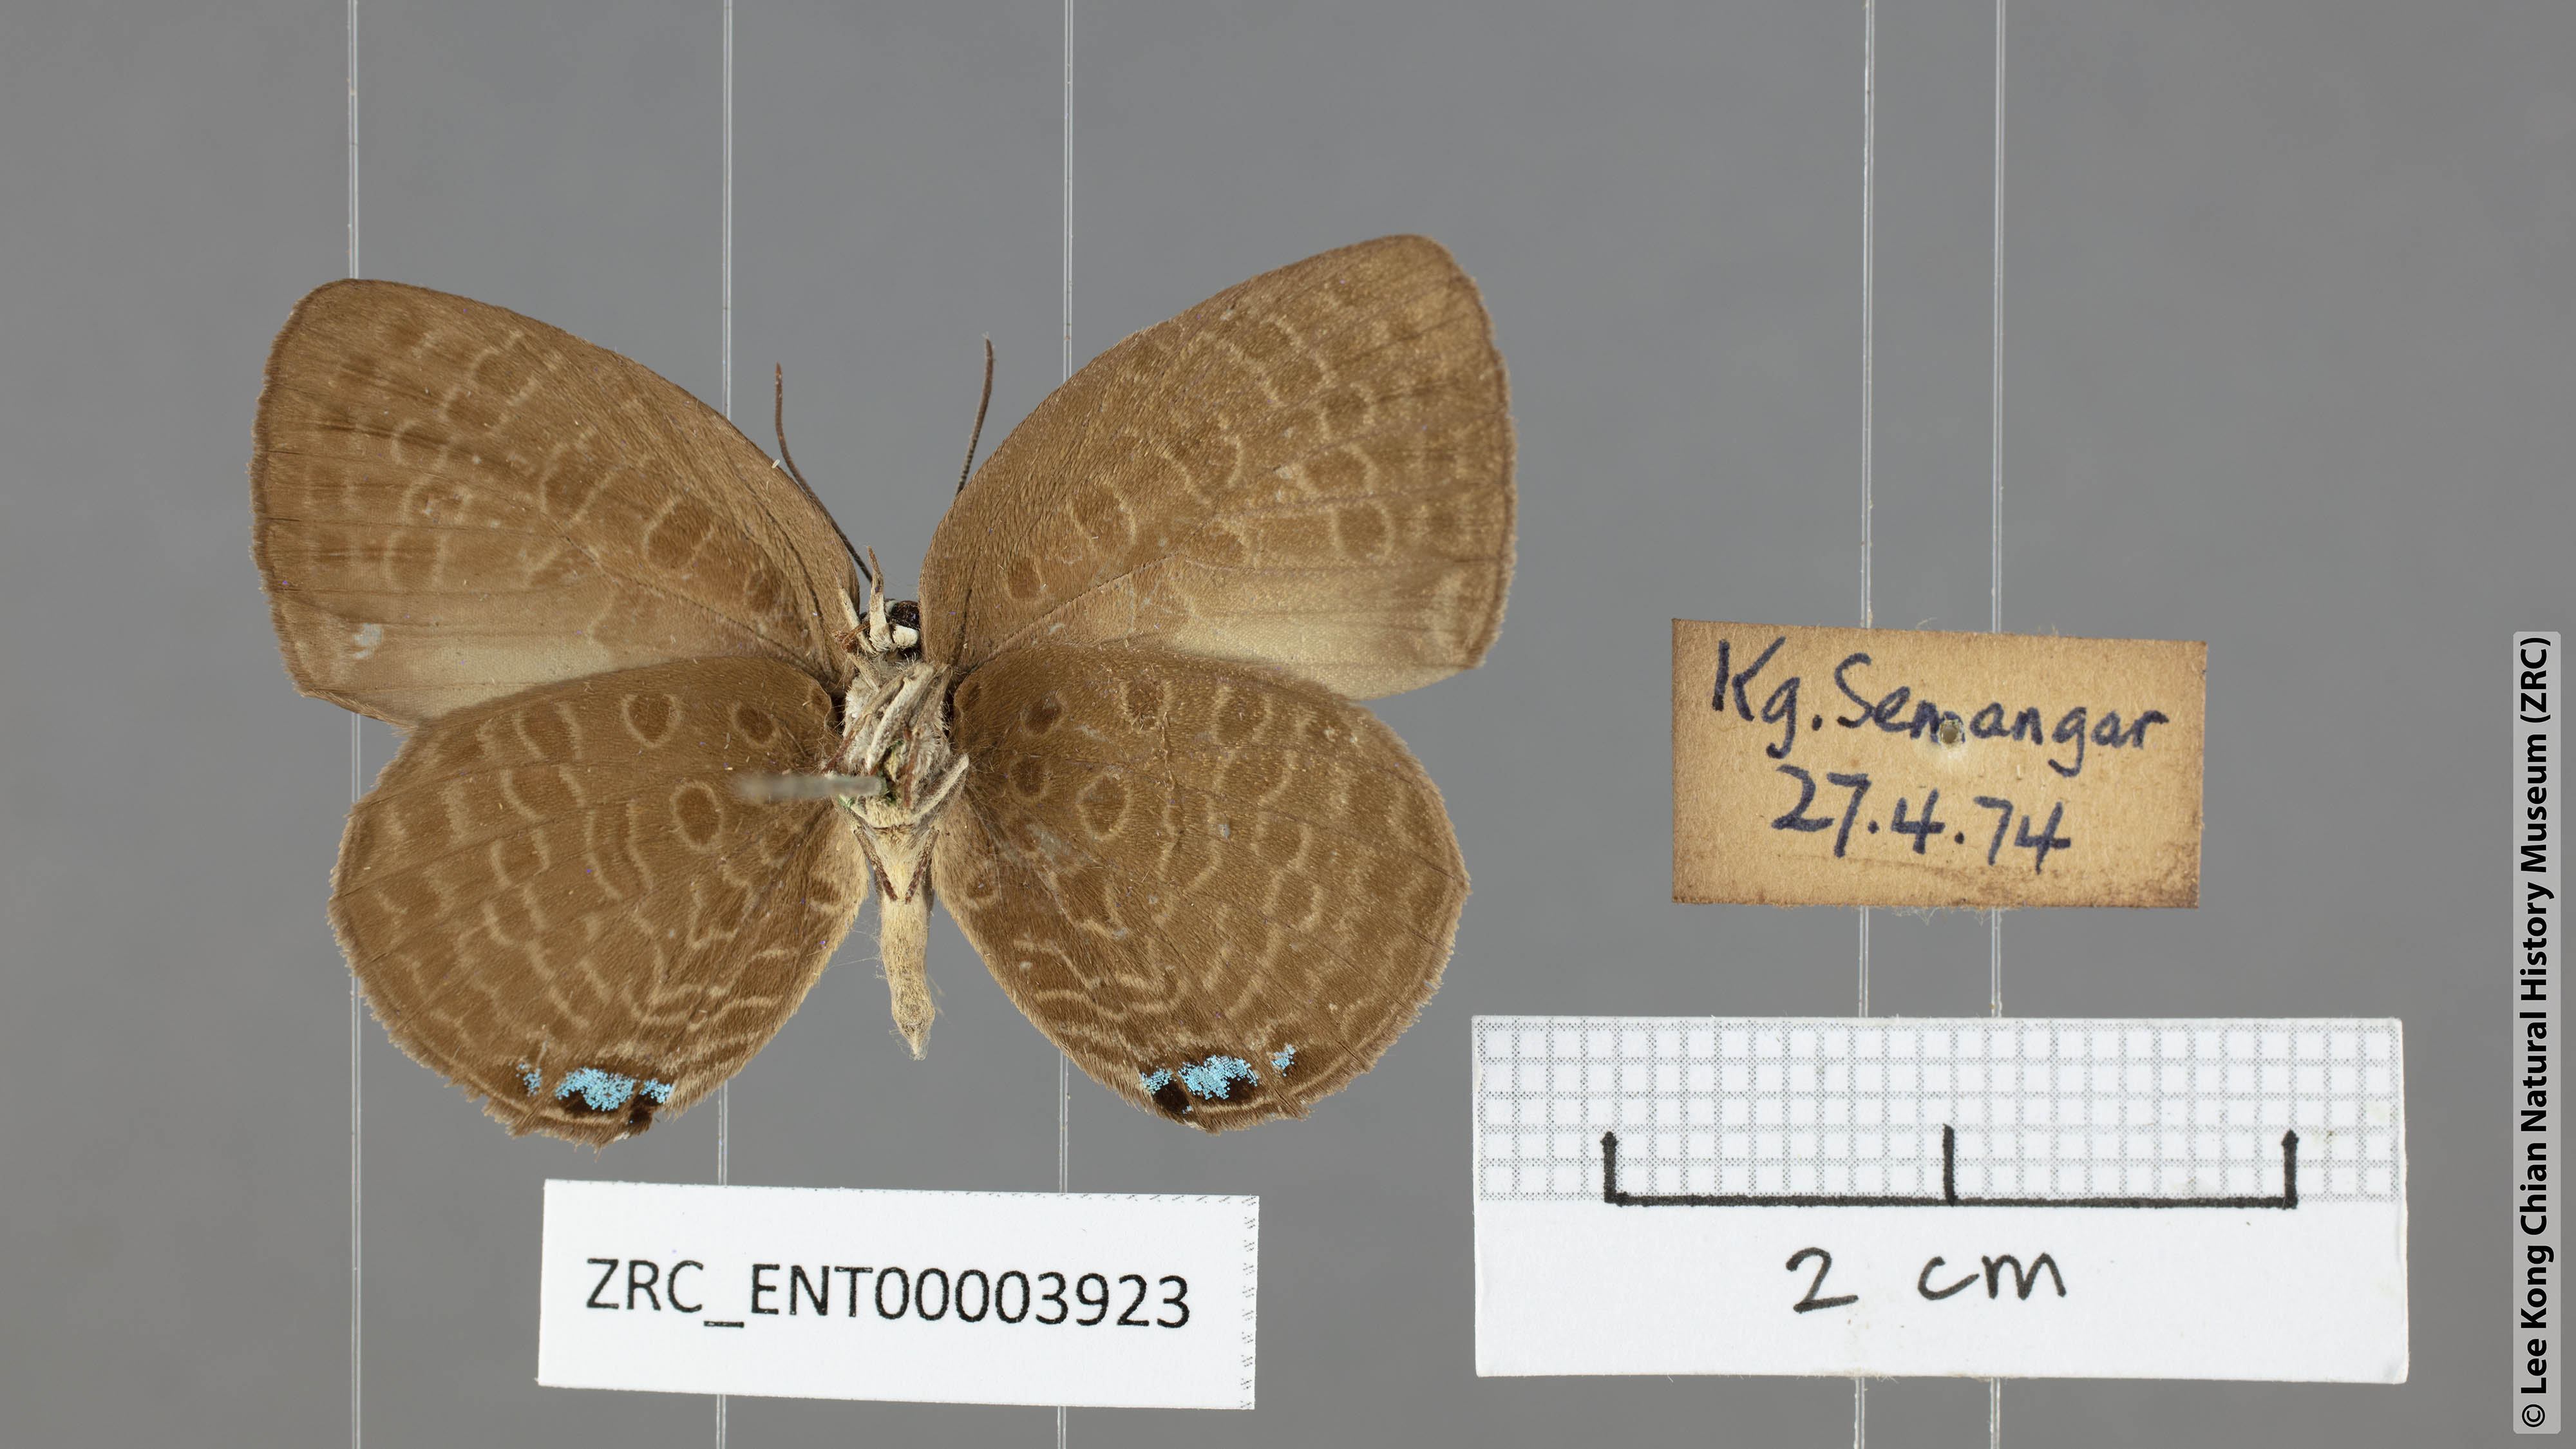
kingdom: Animalia
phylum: Arthropoda
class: Insecta
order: Lepidoptera
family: Lycaenidae
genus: Arhopala
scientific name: Arhopala epimuta
